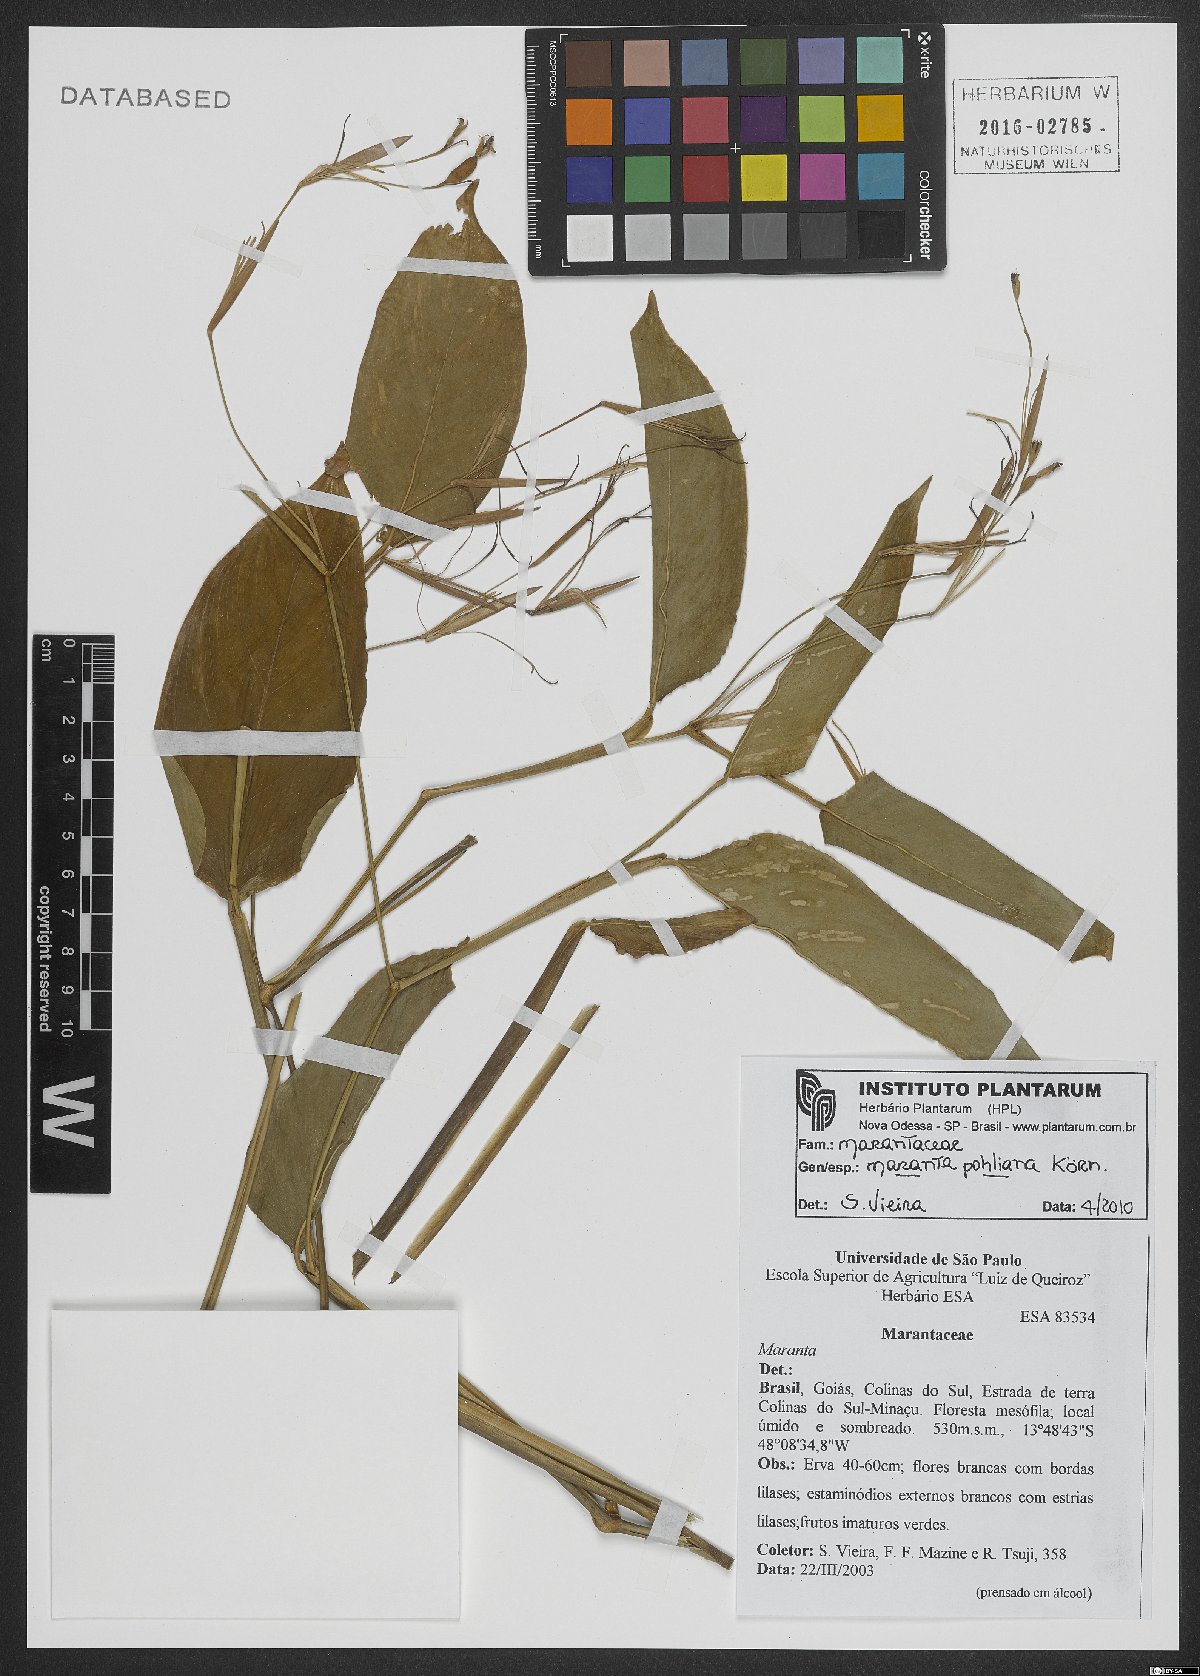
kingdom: Plantae
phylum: Tracheophyta
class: Liliopsida
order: Zingiberales
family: Marantaceae
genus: Maranta
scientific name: Maranta pohliana
